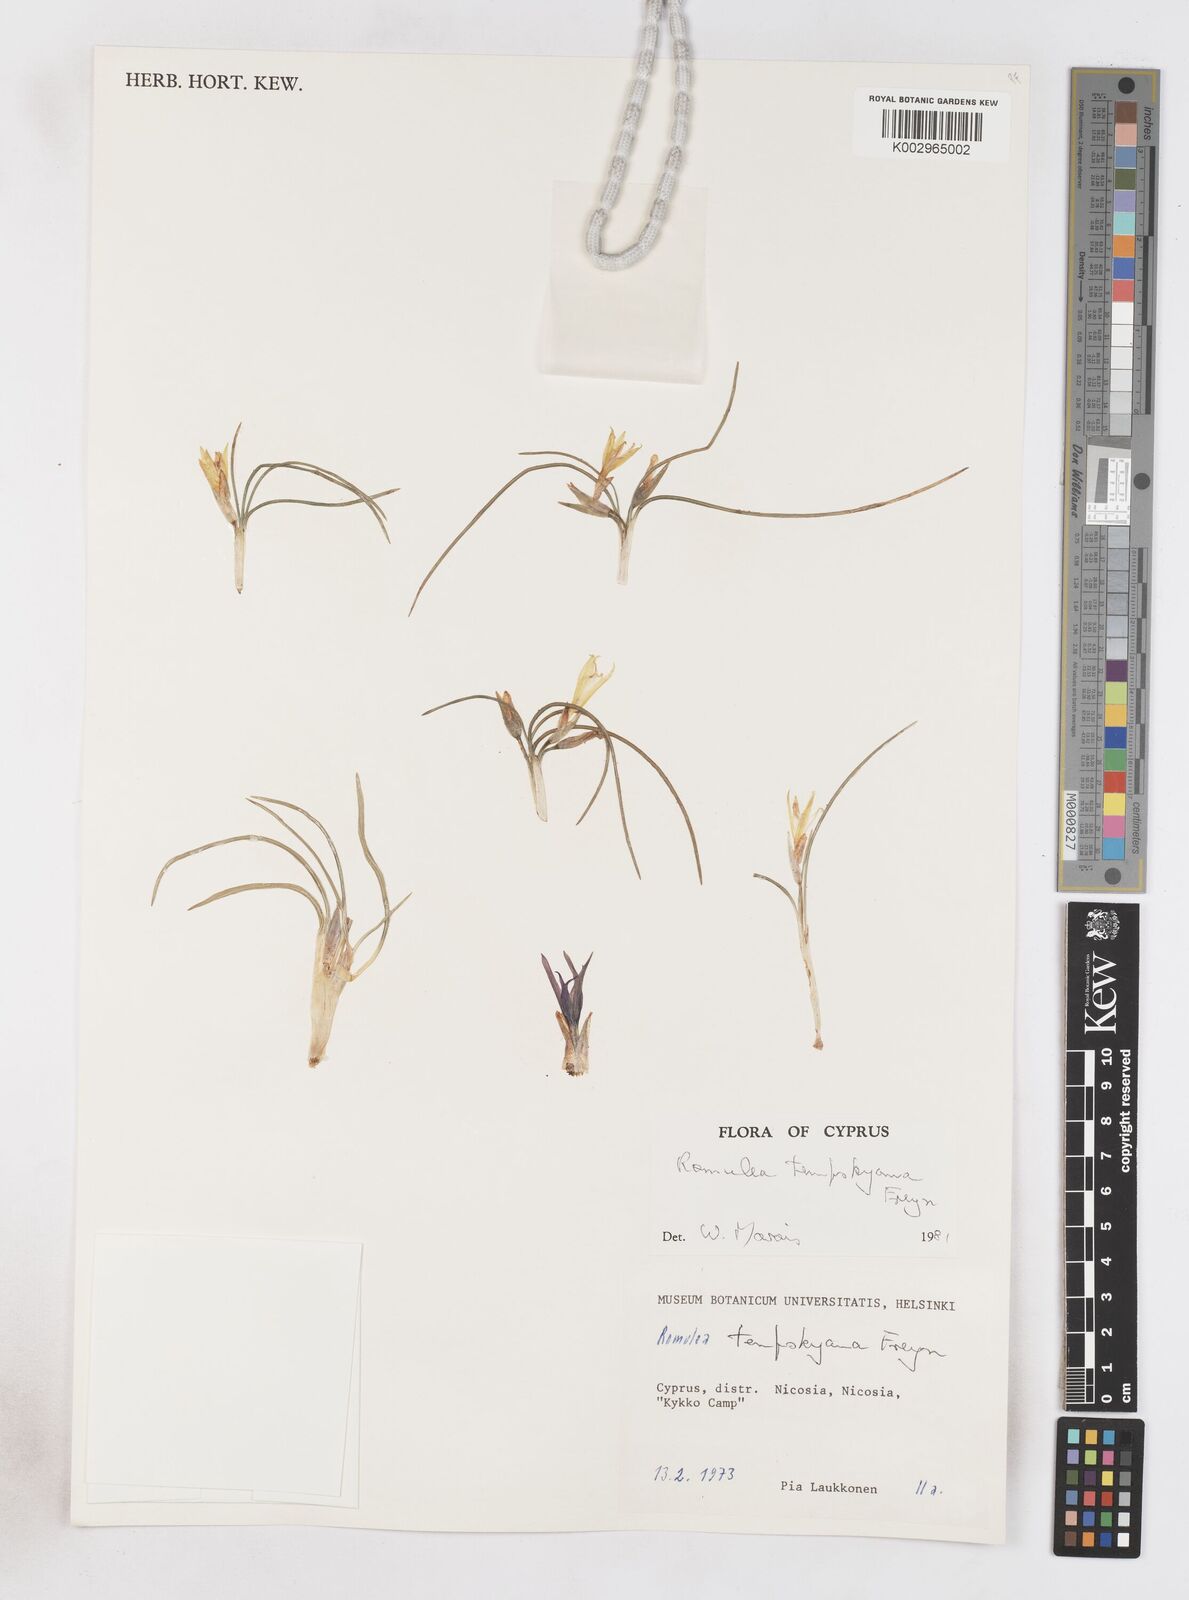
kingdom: Plantae
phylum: Tracheophyta
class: Liliopsida
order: Asparagales
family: Iridaceae
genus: Romulea
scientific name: Romulea tempskyana
